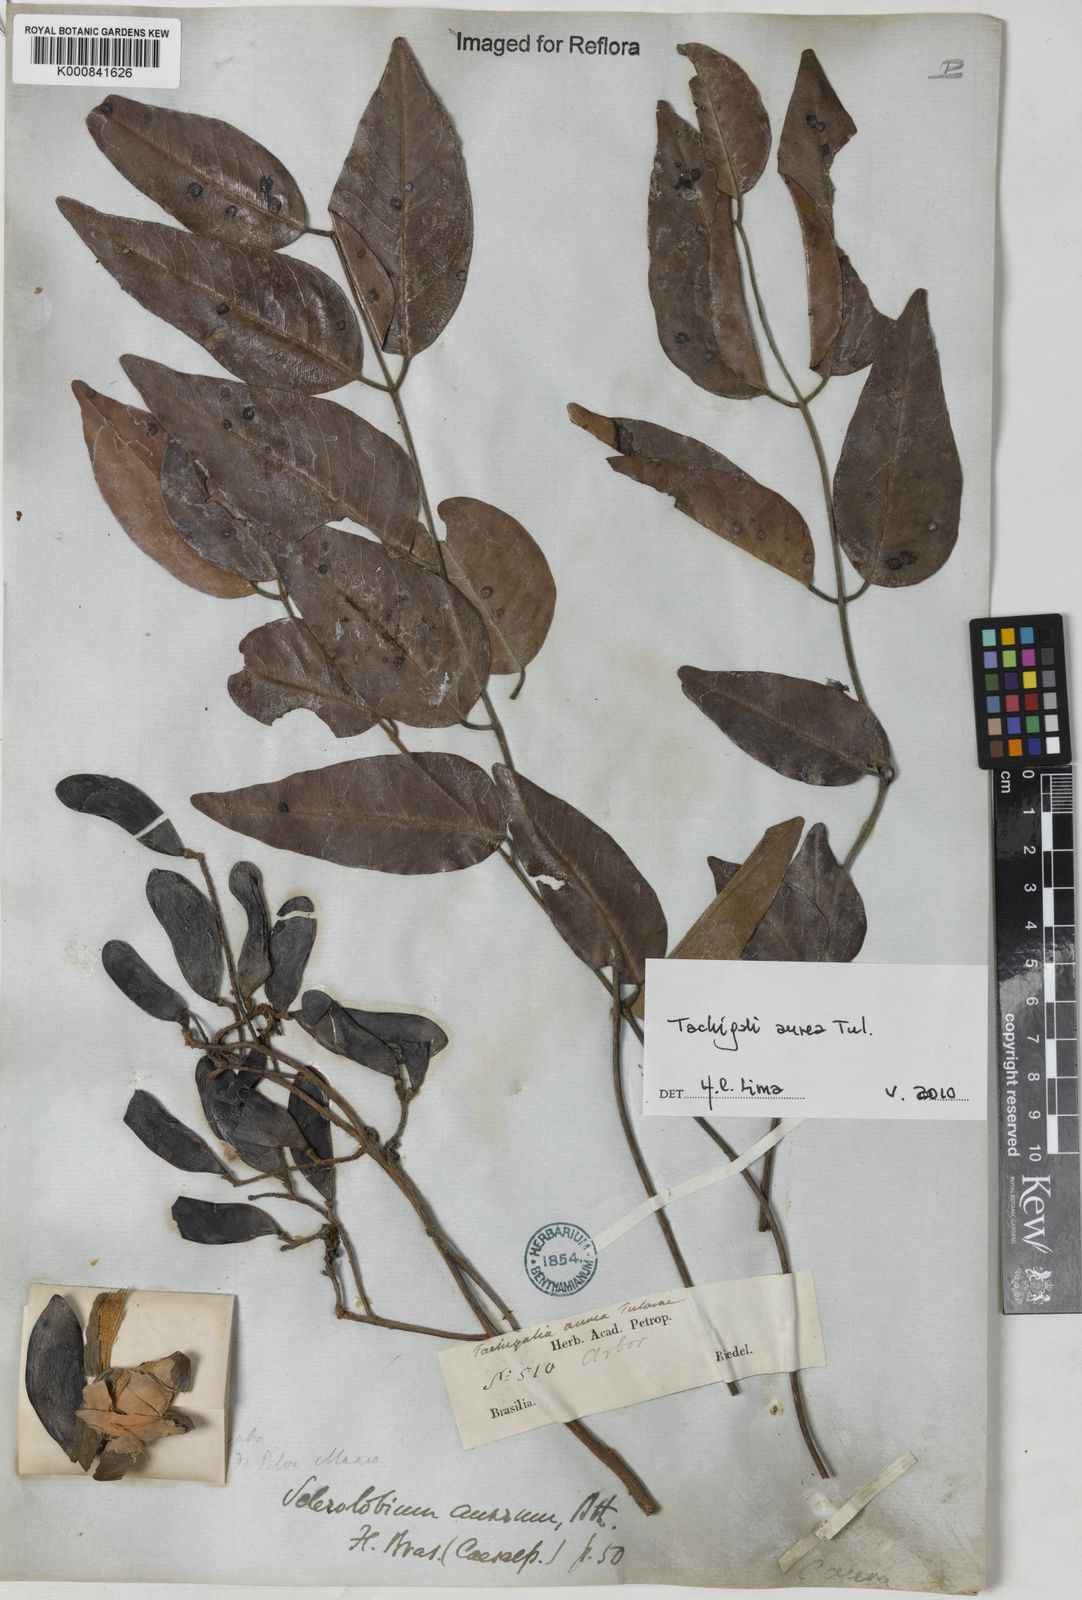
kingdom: Plantae
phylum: Tracheophyta
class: Magnoliopsida
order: Fabales
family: Fabaceae
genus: Tachigali
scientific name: Tachigali aurea
